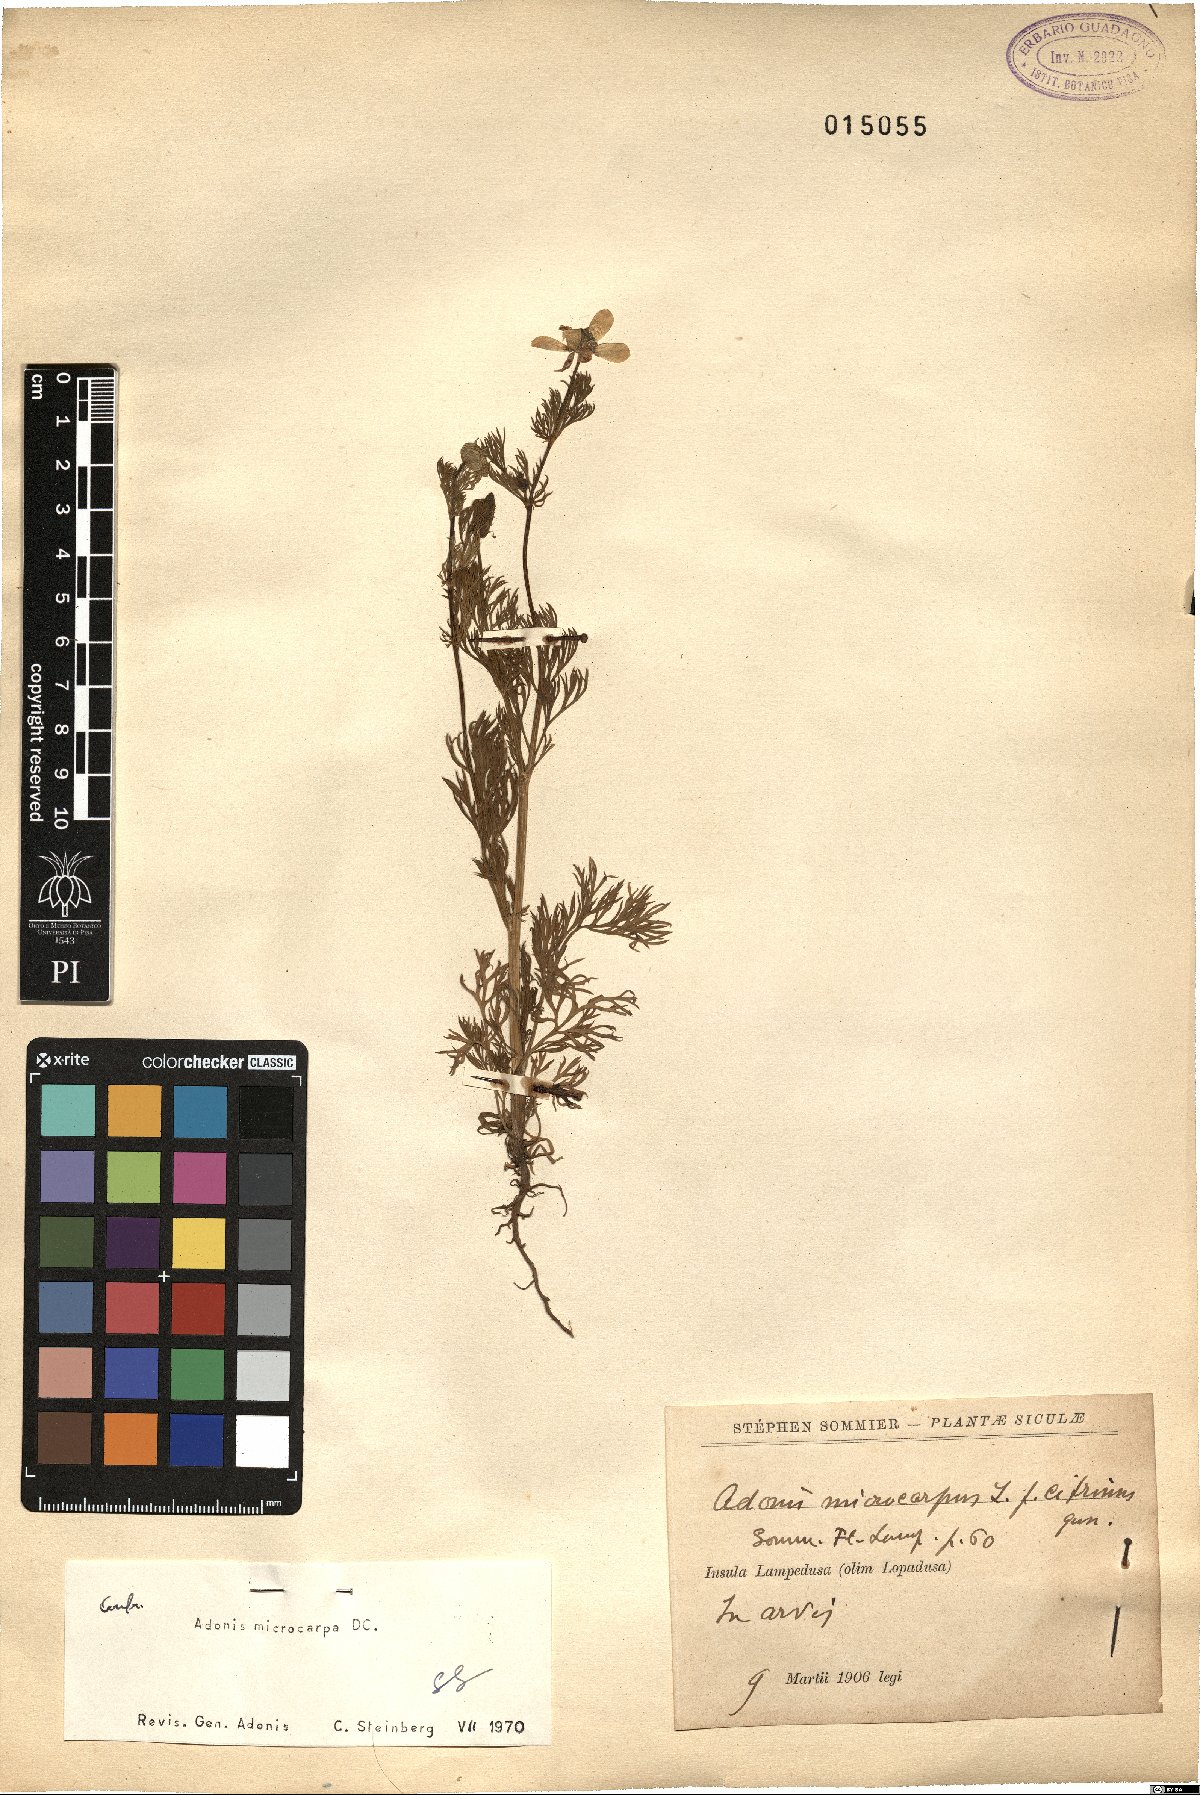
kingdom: Plantae
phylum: Tracheophyta
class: Magnoliopsida
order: Ranunculales
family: Ranunculaceae
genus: Adonis
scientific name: Adonis microcarpa
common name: Pheasant's-eye
